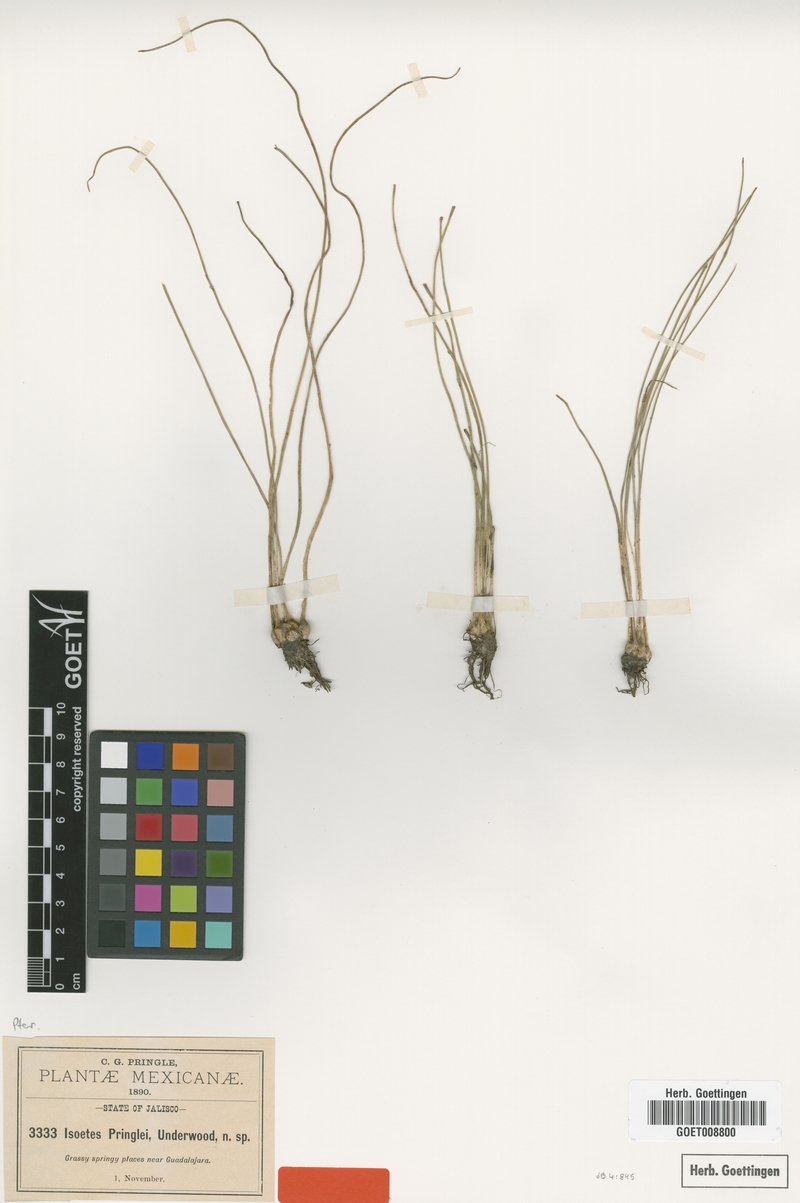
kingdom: Plantae
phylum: Tracheophyta
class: Lycopodiopsida
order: Isoetales
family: Isoetaceae
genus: Isoetes
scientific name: Isoetes pringlei
